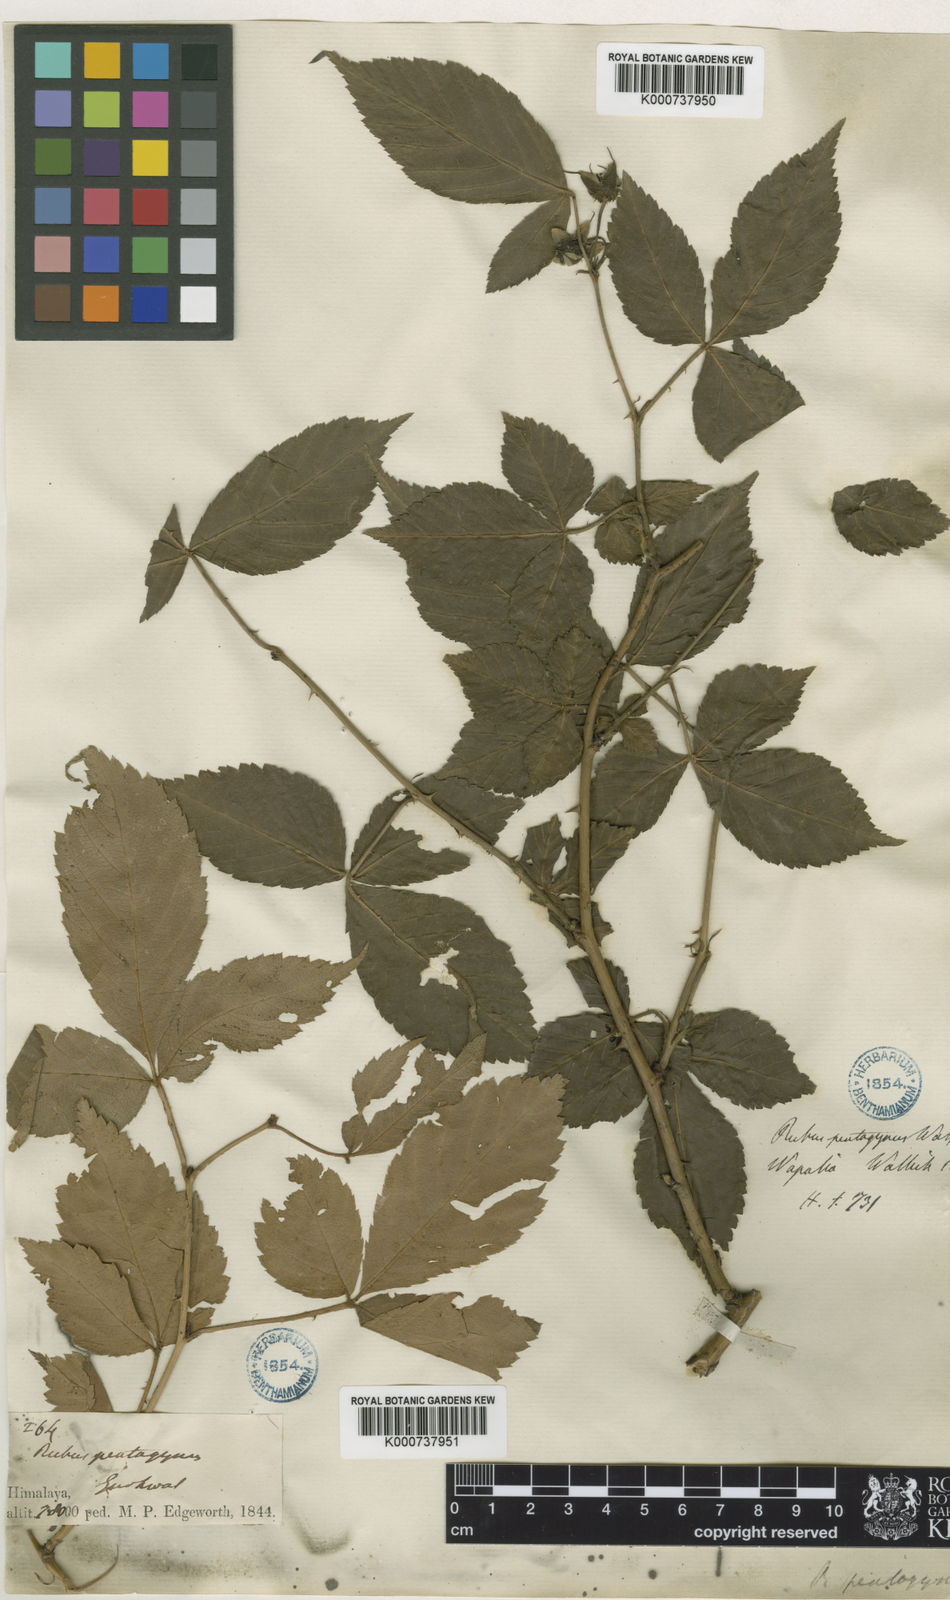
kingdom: Plantae
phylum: Tracheophyta
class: Magnoliopsida
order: Rosales
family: Rosaceae
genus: Rubus
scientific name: Rubus
